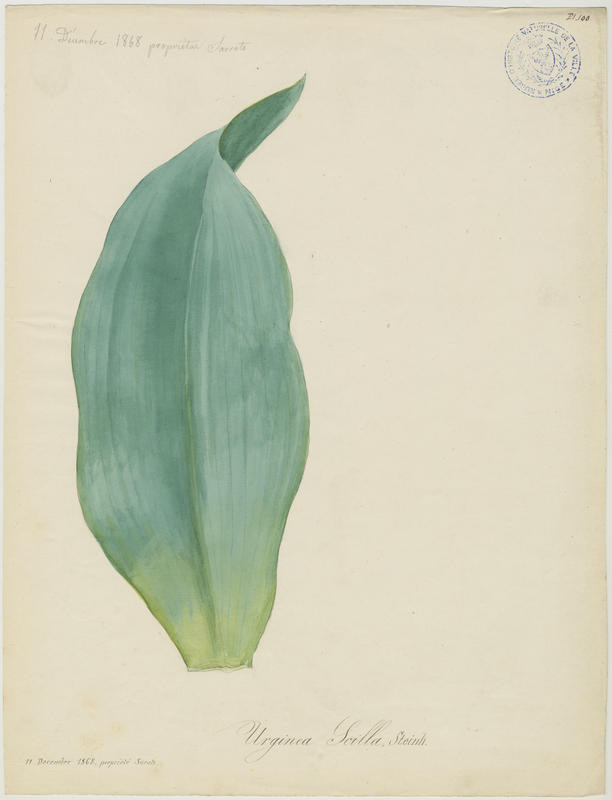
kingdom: Plantae
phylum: Tracheophyta
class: Liliopsida
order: Asparagales
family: Asparagaceae
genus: Drimia
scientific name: Drimia maritima
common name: Maritime squill
